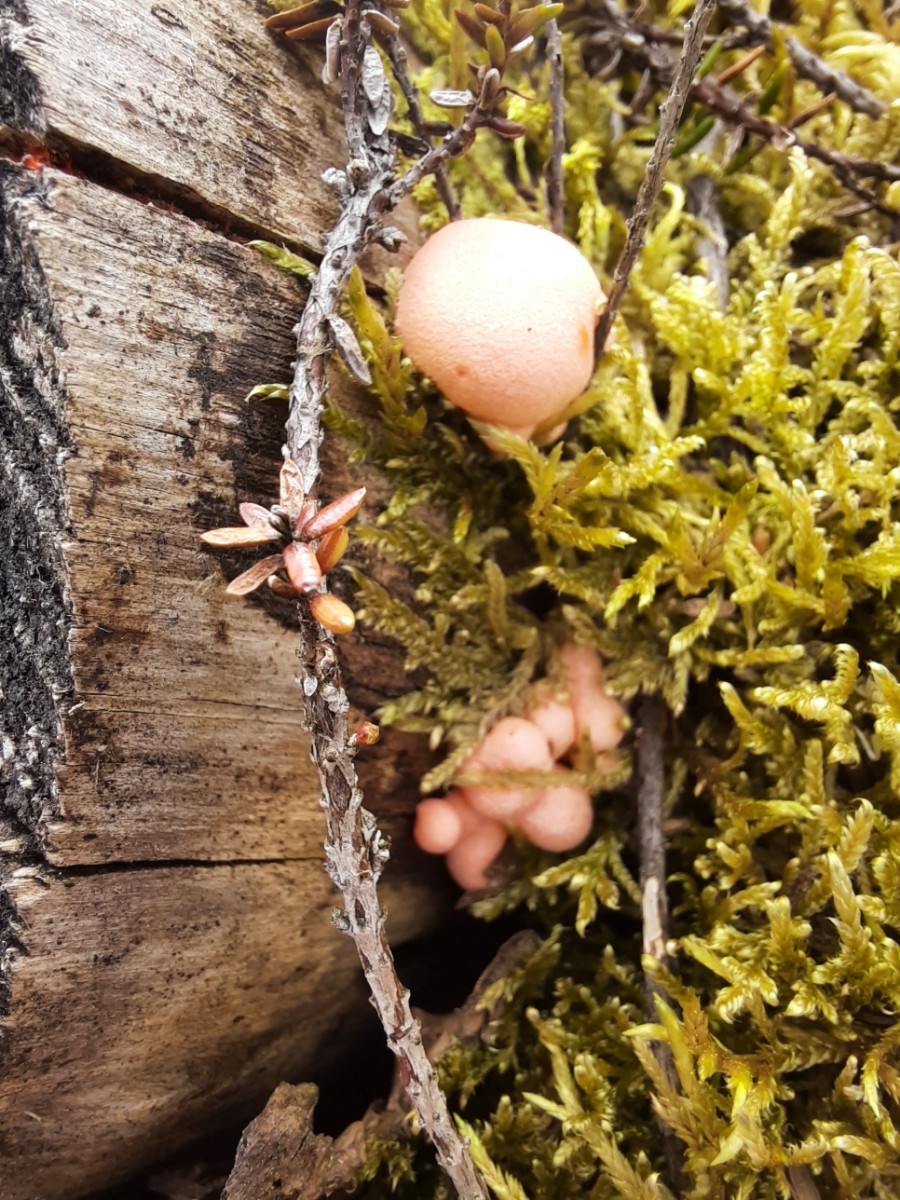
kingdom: Protozoa
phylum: Mycetozoa
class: Myxomycetes
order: Cribrariales
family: Tubiferaceae
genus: Lycogala
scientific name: Lycogala epidendrum
